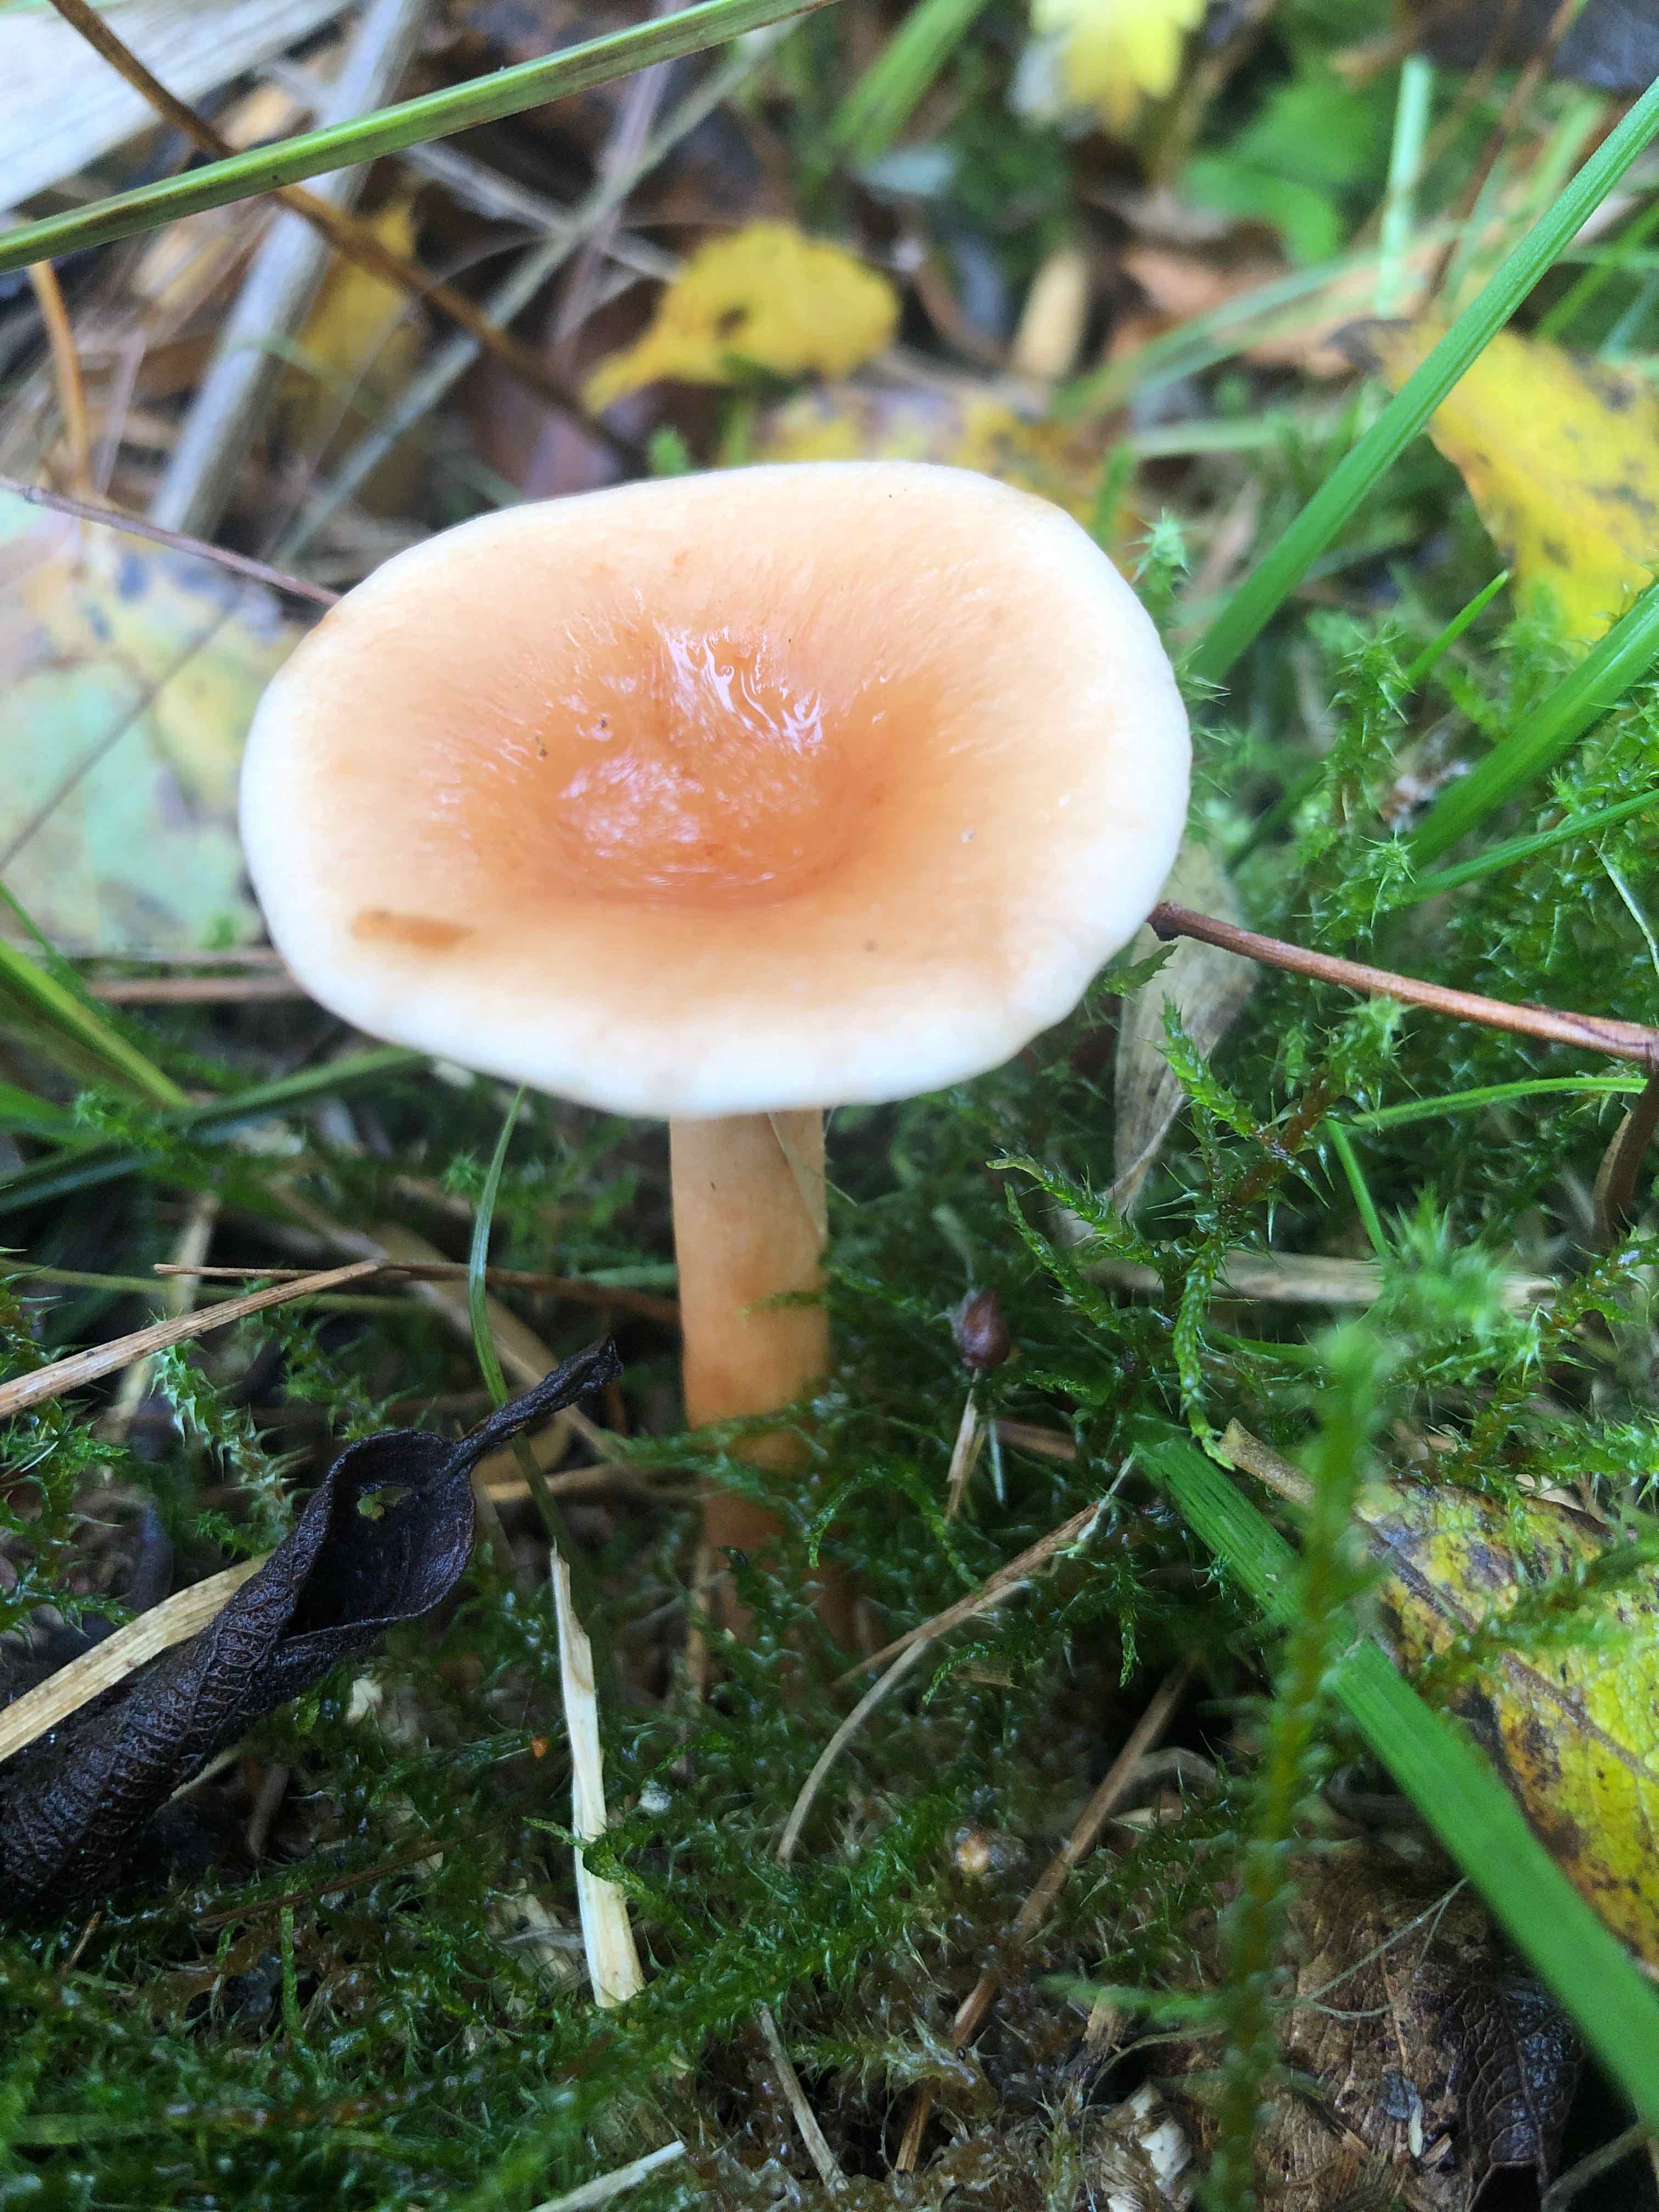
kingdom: Fungi
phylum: Basidiomycota
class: Agaricomycetes
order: Russulales
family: Russulaceae
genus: Lactarius
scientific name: Lactarius tabidus
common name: rynket mælkehat
